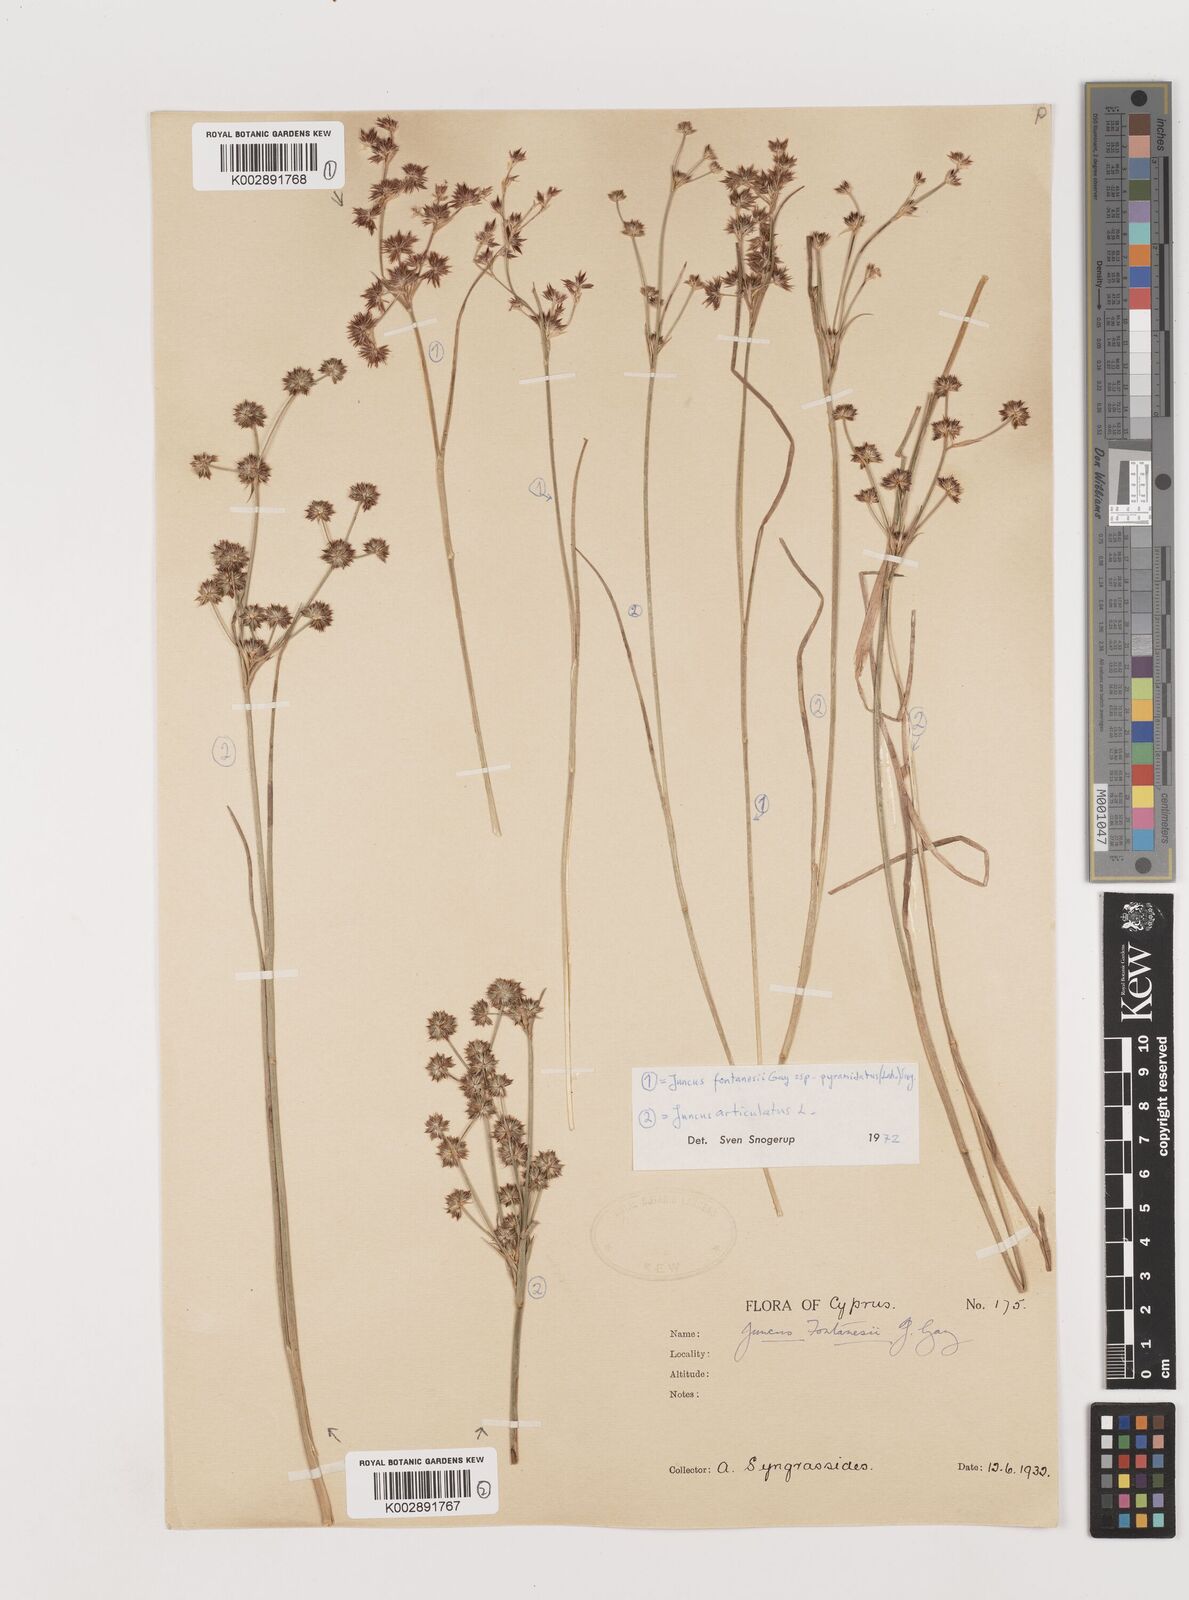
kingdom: Plantae
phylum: Tracheophyta
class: Liliopsida
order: Poales
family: Juncaceae
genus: Juncus
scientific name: Juncus articulatus
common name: Jointed rush
